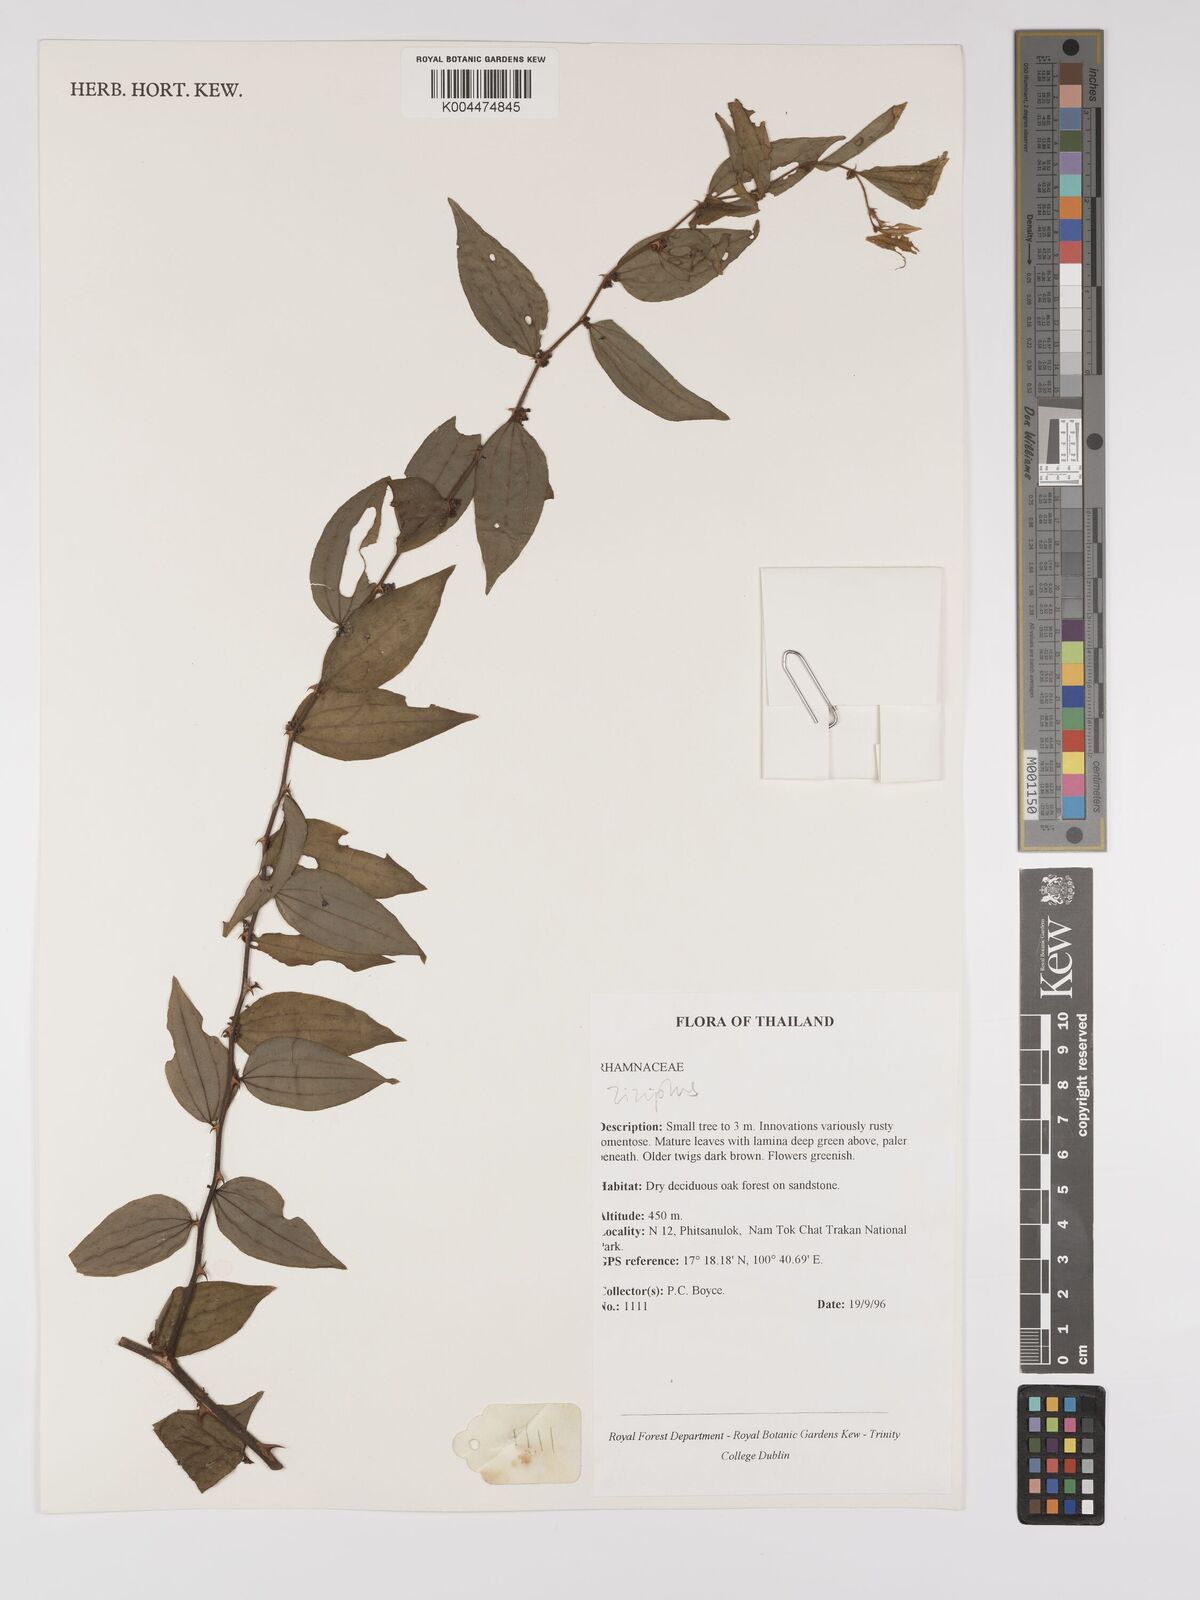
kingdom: Plantae
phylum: Tracheophyta
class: Magnoliopsida
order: Rosales
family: Rhamnaceae
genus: Ziziphus
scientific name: Ziziphus oenopolia
